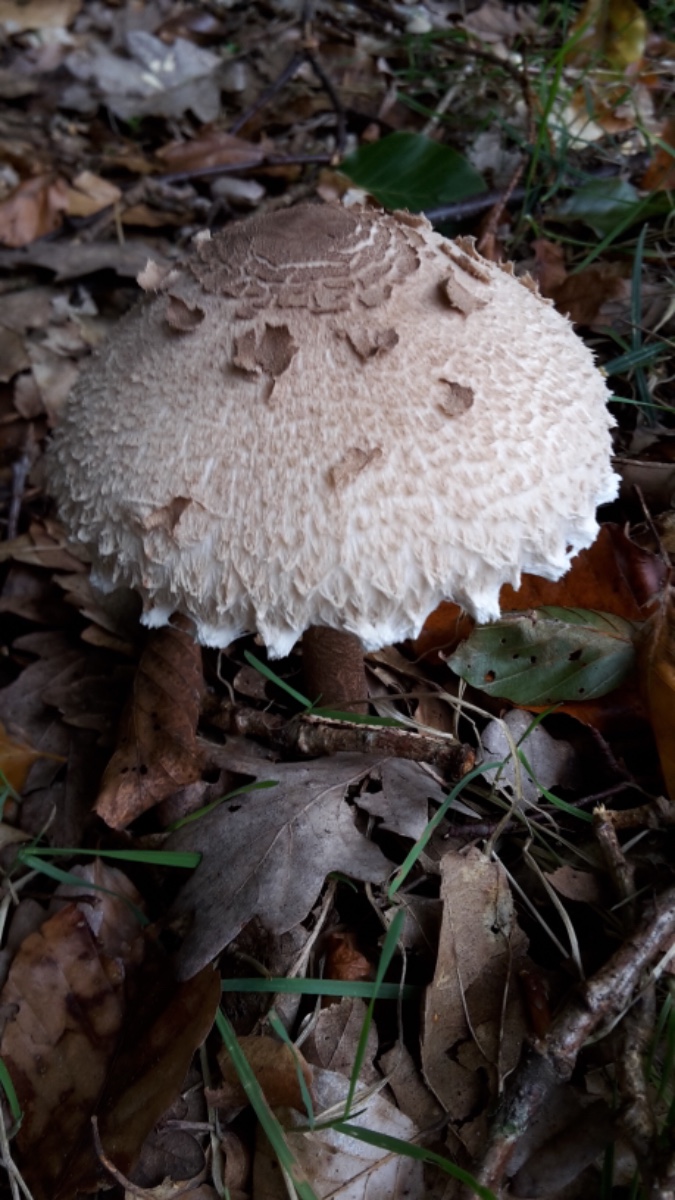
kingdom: Fungi
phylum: Basidiomycota
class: Agaricomycetes
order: Agaricales
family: Agaricaceae
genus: Macrolepiota
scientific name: Macrolepiota procera
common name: stor kæmpeparasolhat
